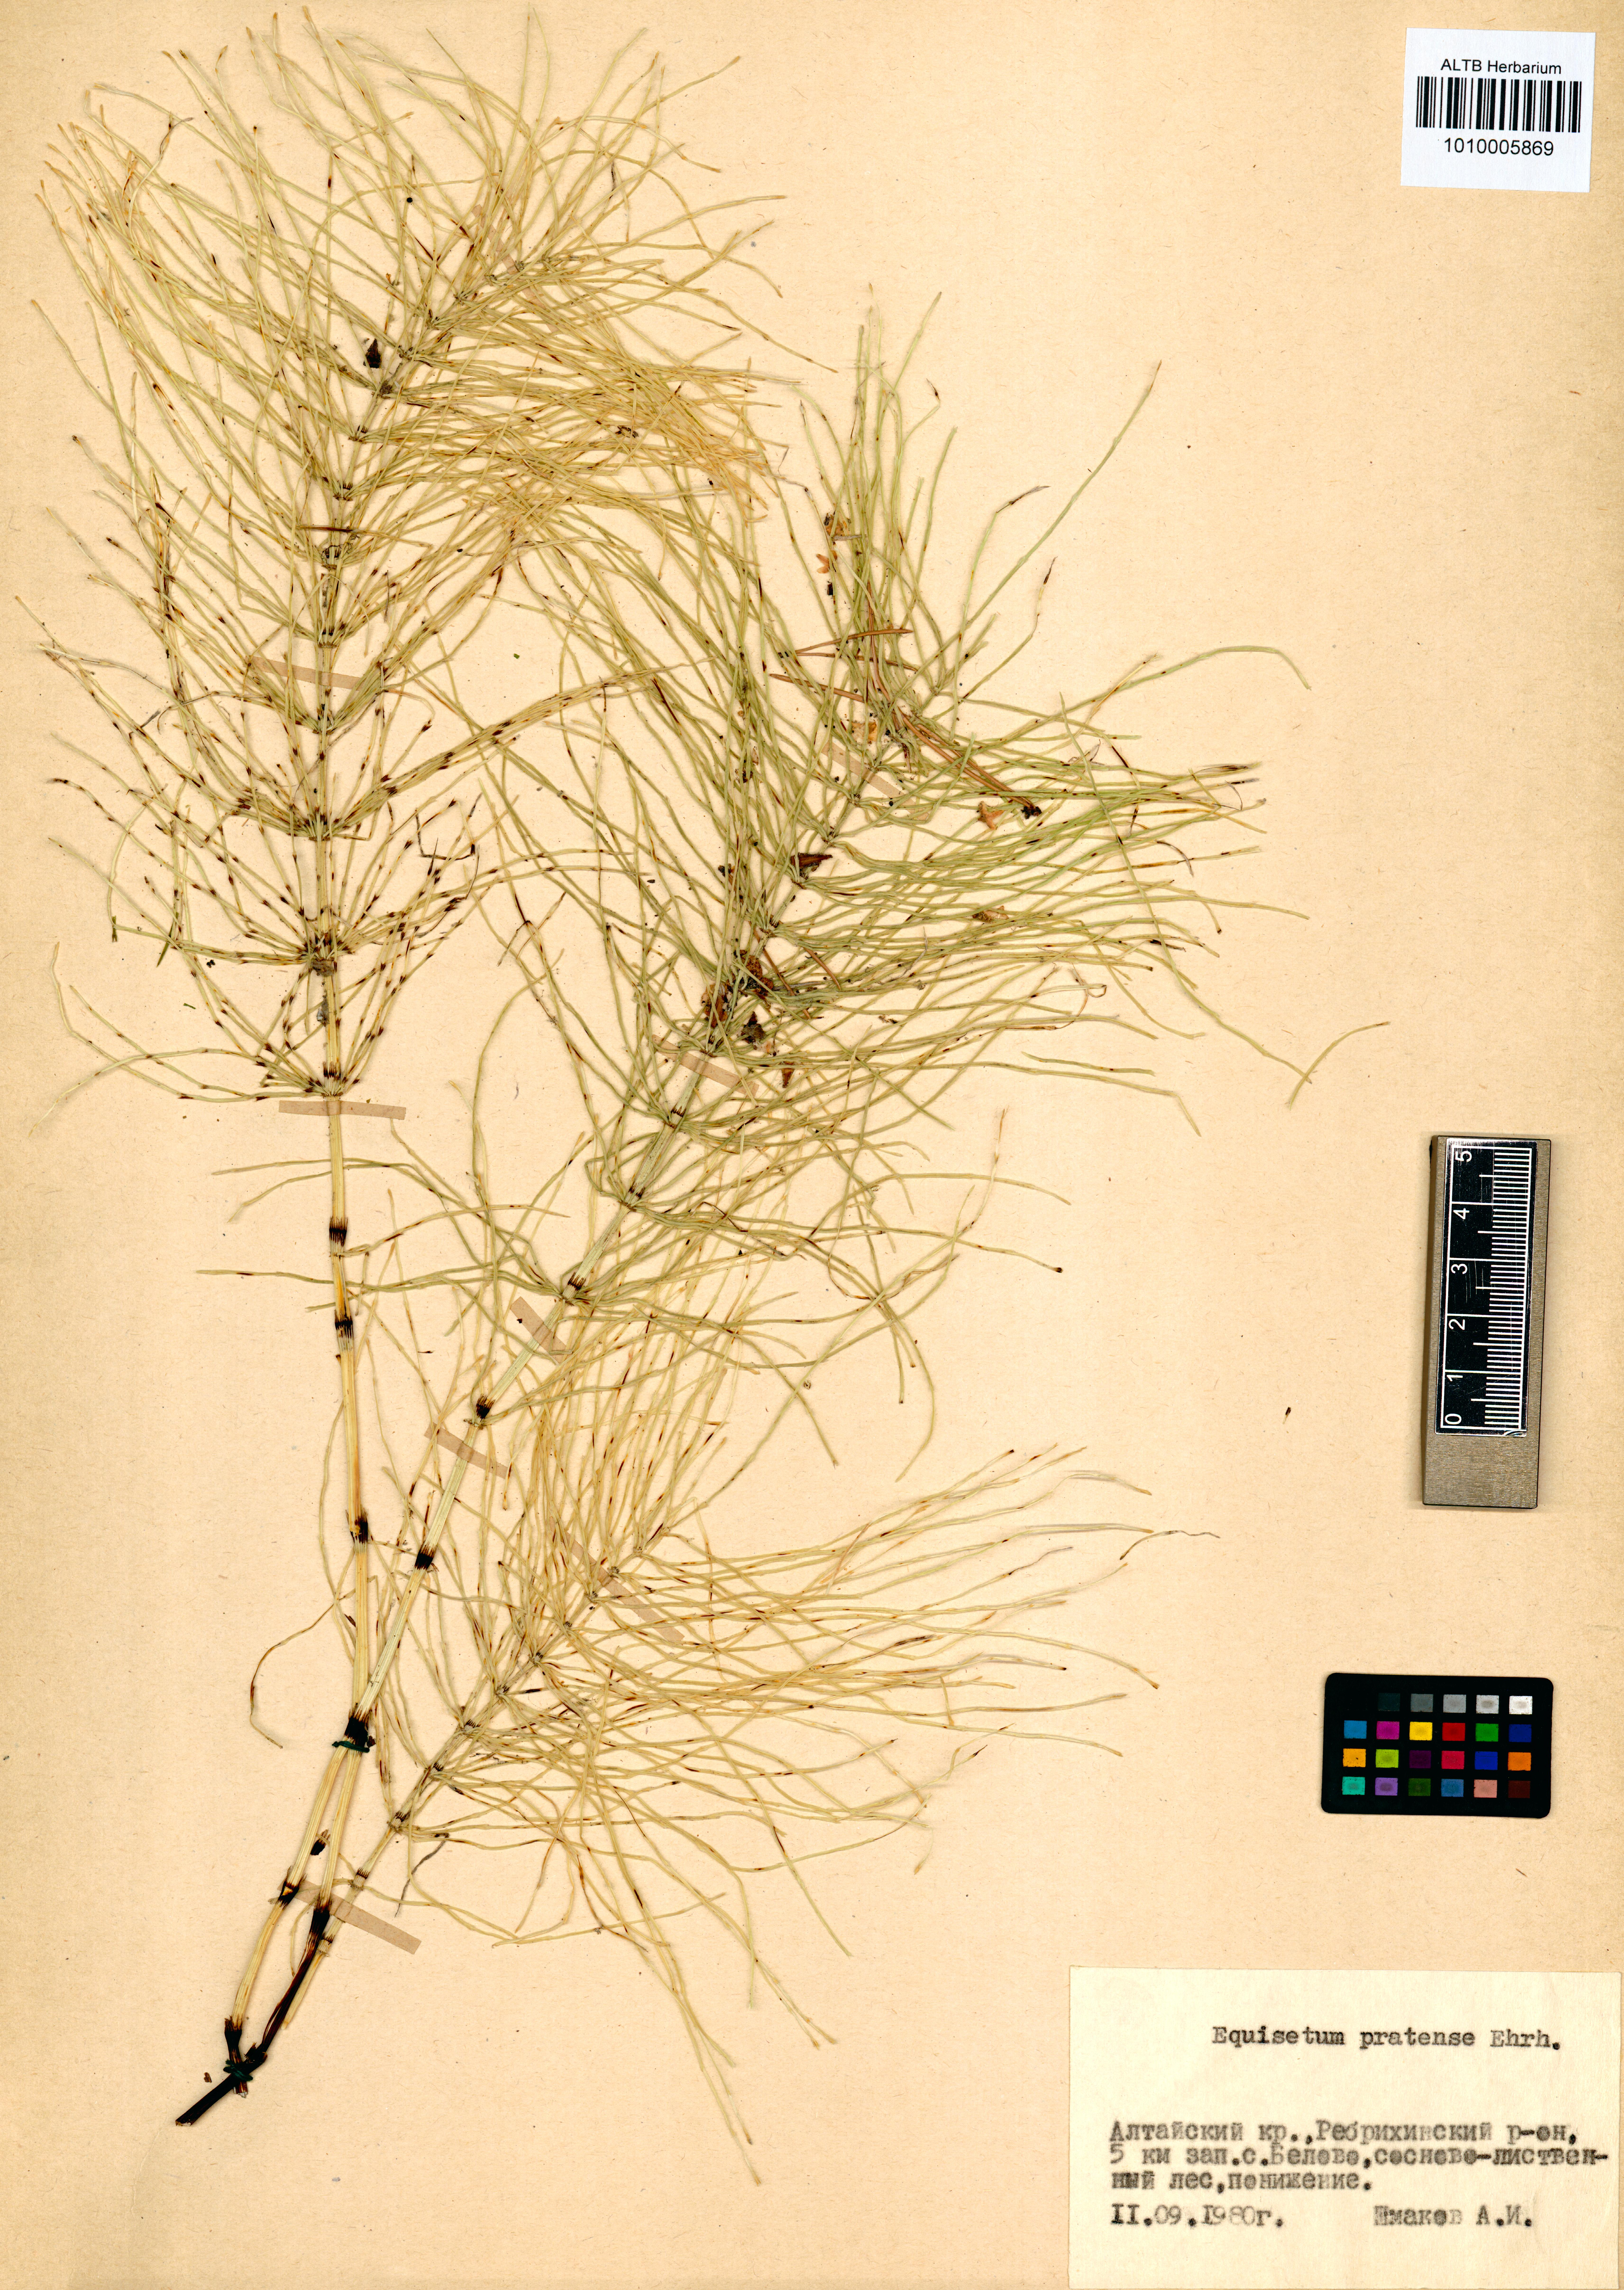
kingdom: Plantae
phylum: Tracheophyta
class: Polypodiopsida
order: Equisetales
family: Equisetaceae
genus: Equisetum
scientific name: Equisetum pratense
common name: Meadow horsetail
